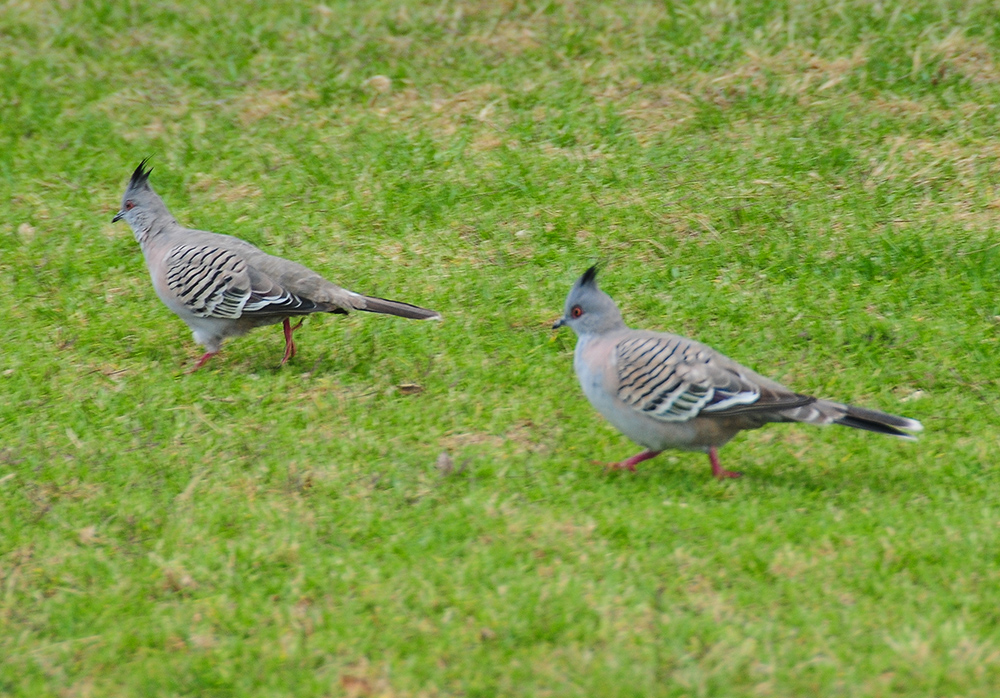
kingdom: Animalia
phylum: Chordata
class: Aves
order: Columbiformes
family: Columbidae
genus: Ocyphaps
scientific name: Ocyphaps lophotes
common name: Crested pigeon
